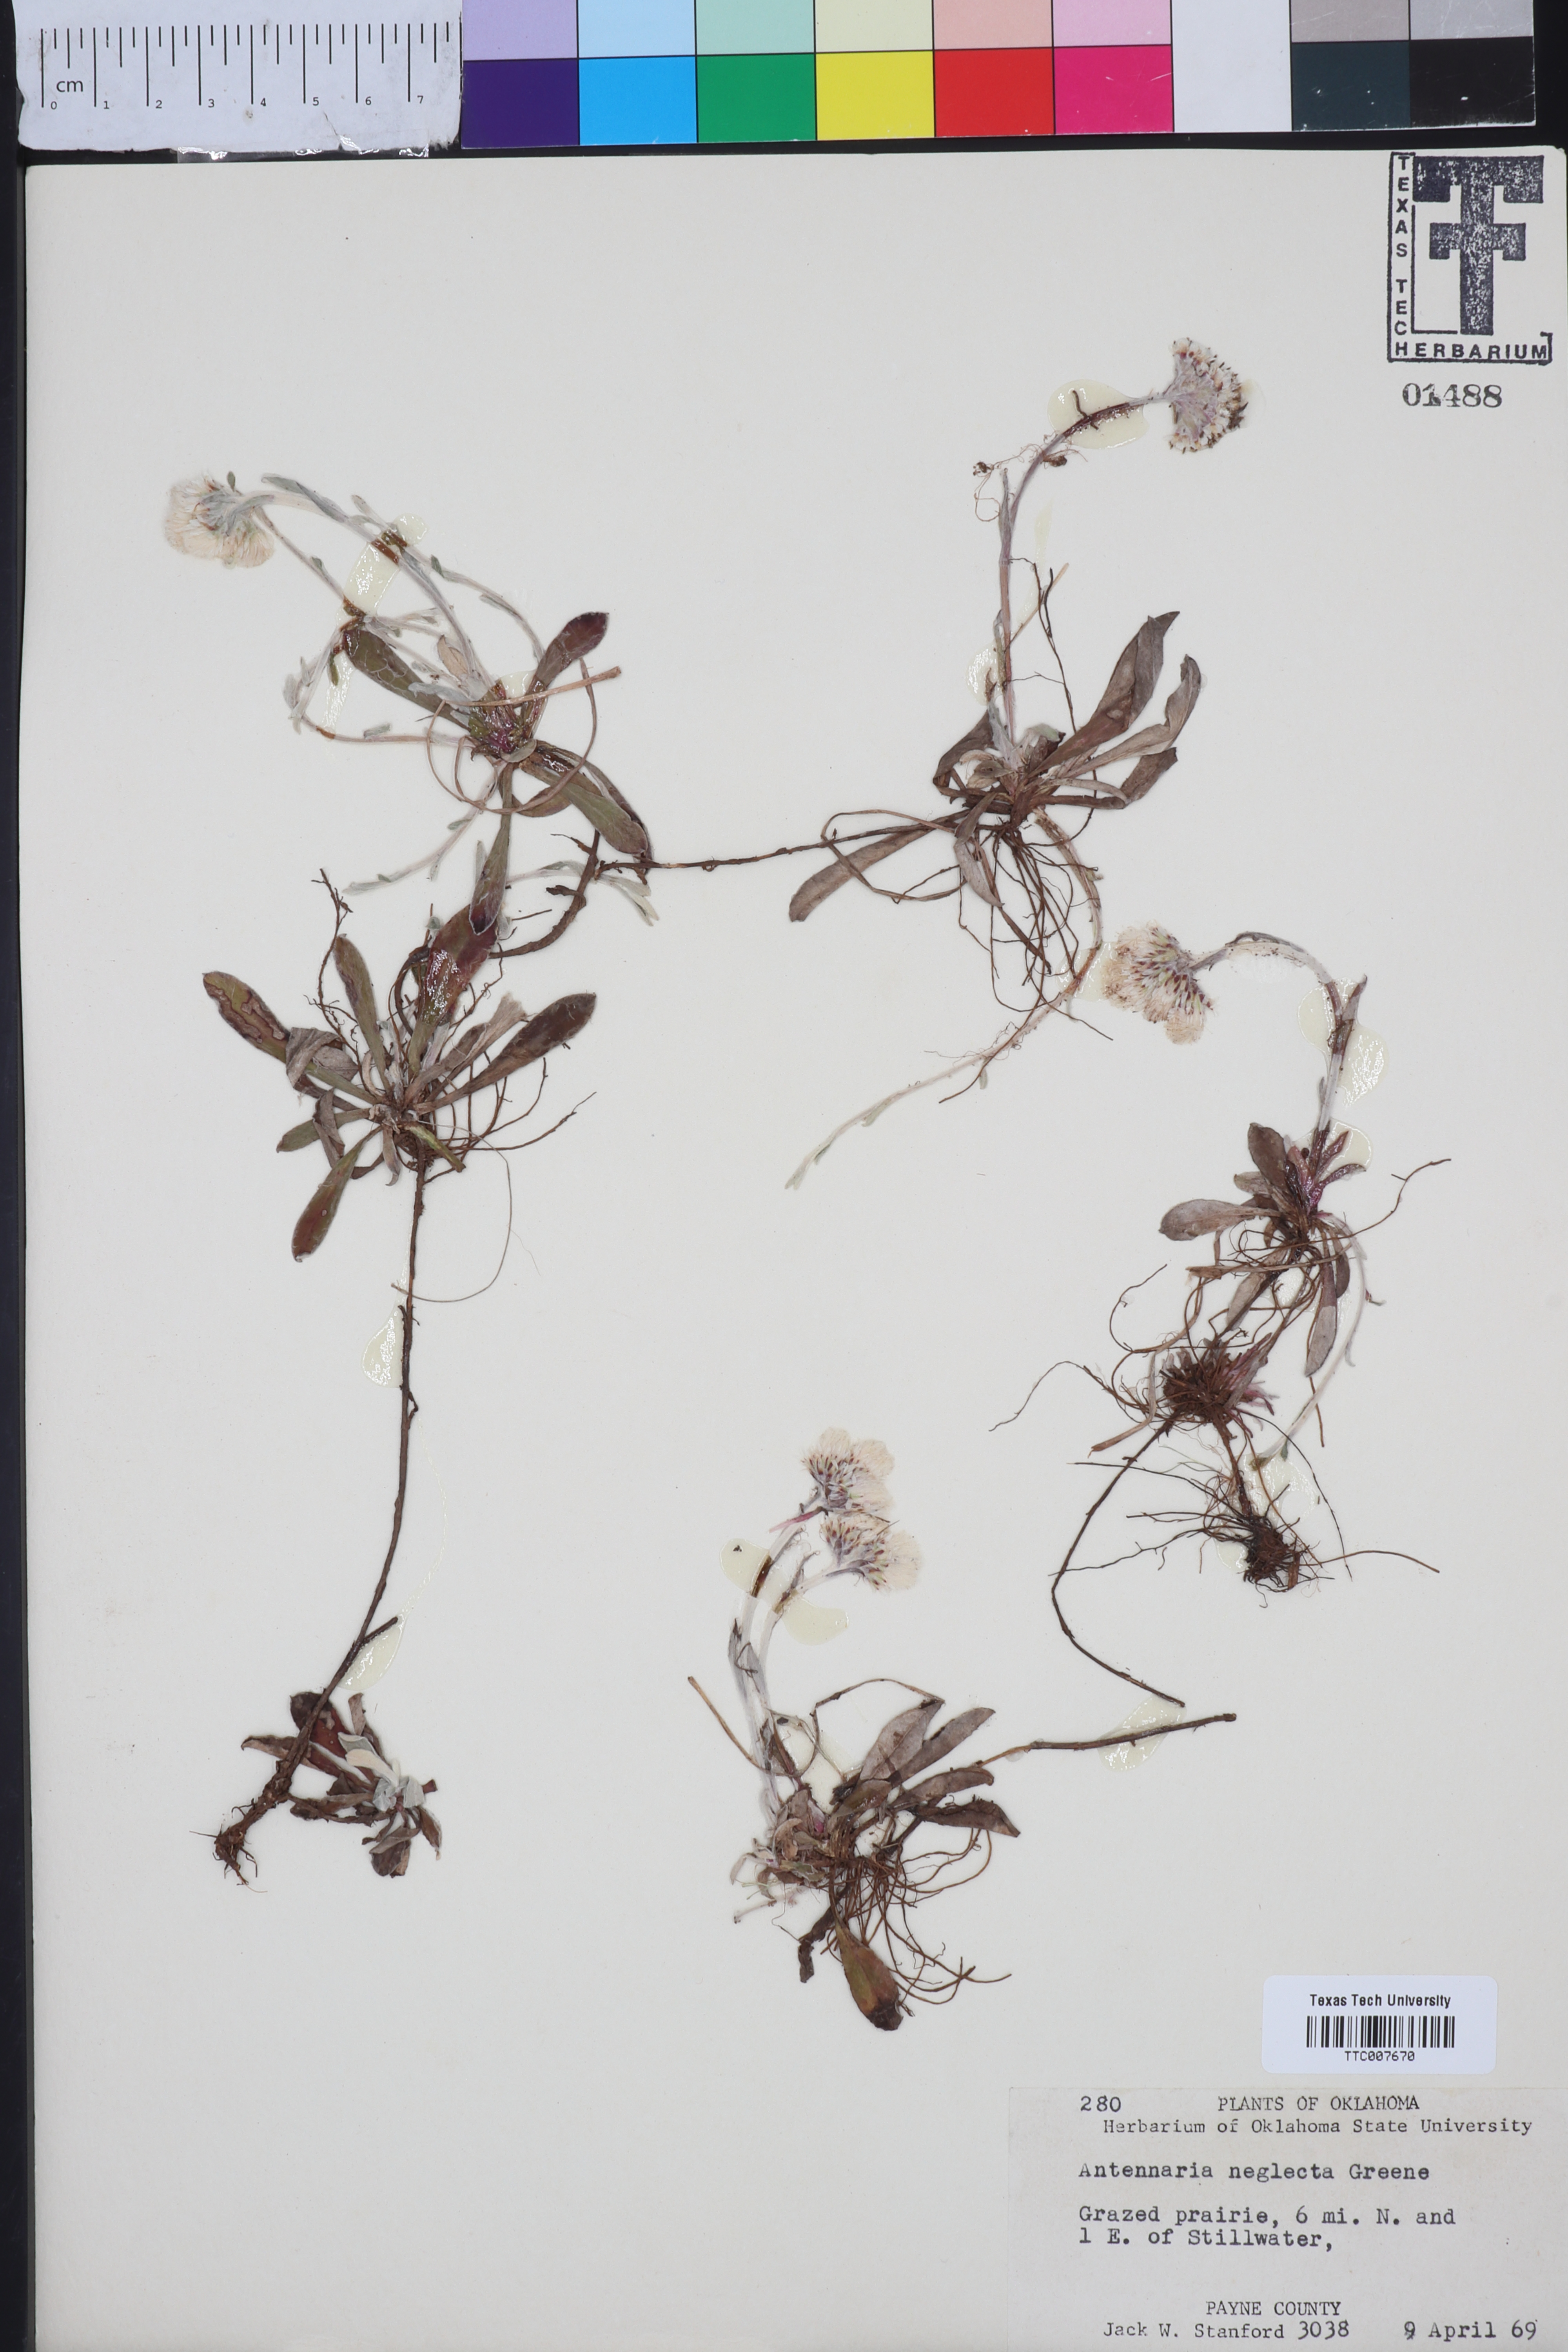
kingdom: Plantae
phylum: Tracheophyta
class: Magnoliopsida
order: Asterales
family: Asteraceae
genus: Antennaria
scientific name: Antennaria neglecta
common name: Field pussytoes
